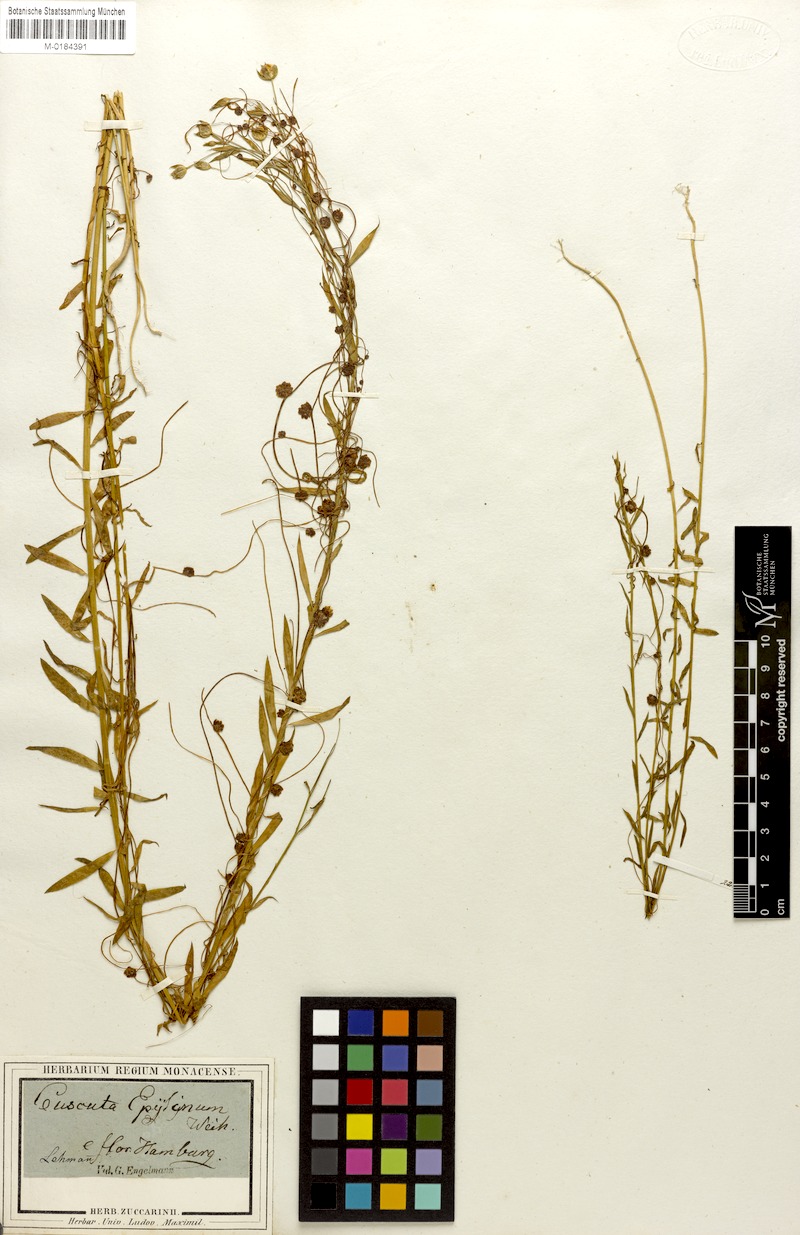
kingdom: Plantae
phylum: Tracheophyta
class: Magnoliopsida
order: Solanales
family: Convolvulaceae
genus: Cuscuta
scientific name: Cuscuta epilinum
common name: Flax dodder
